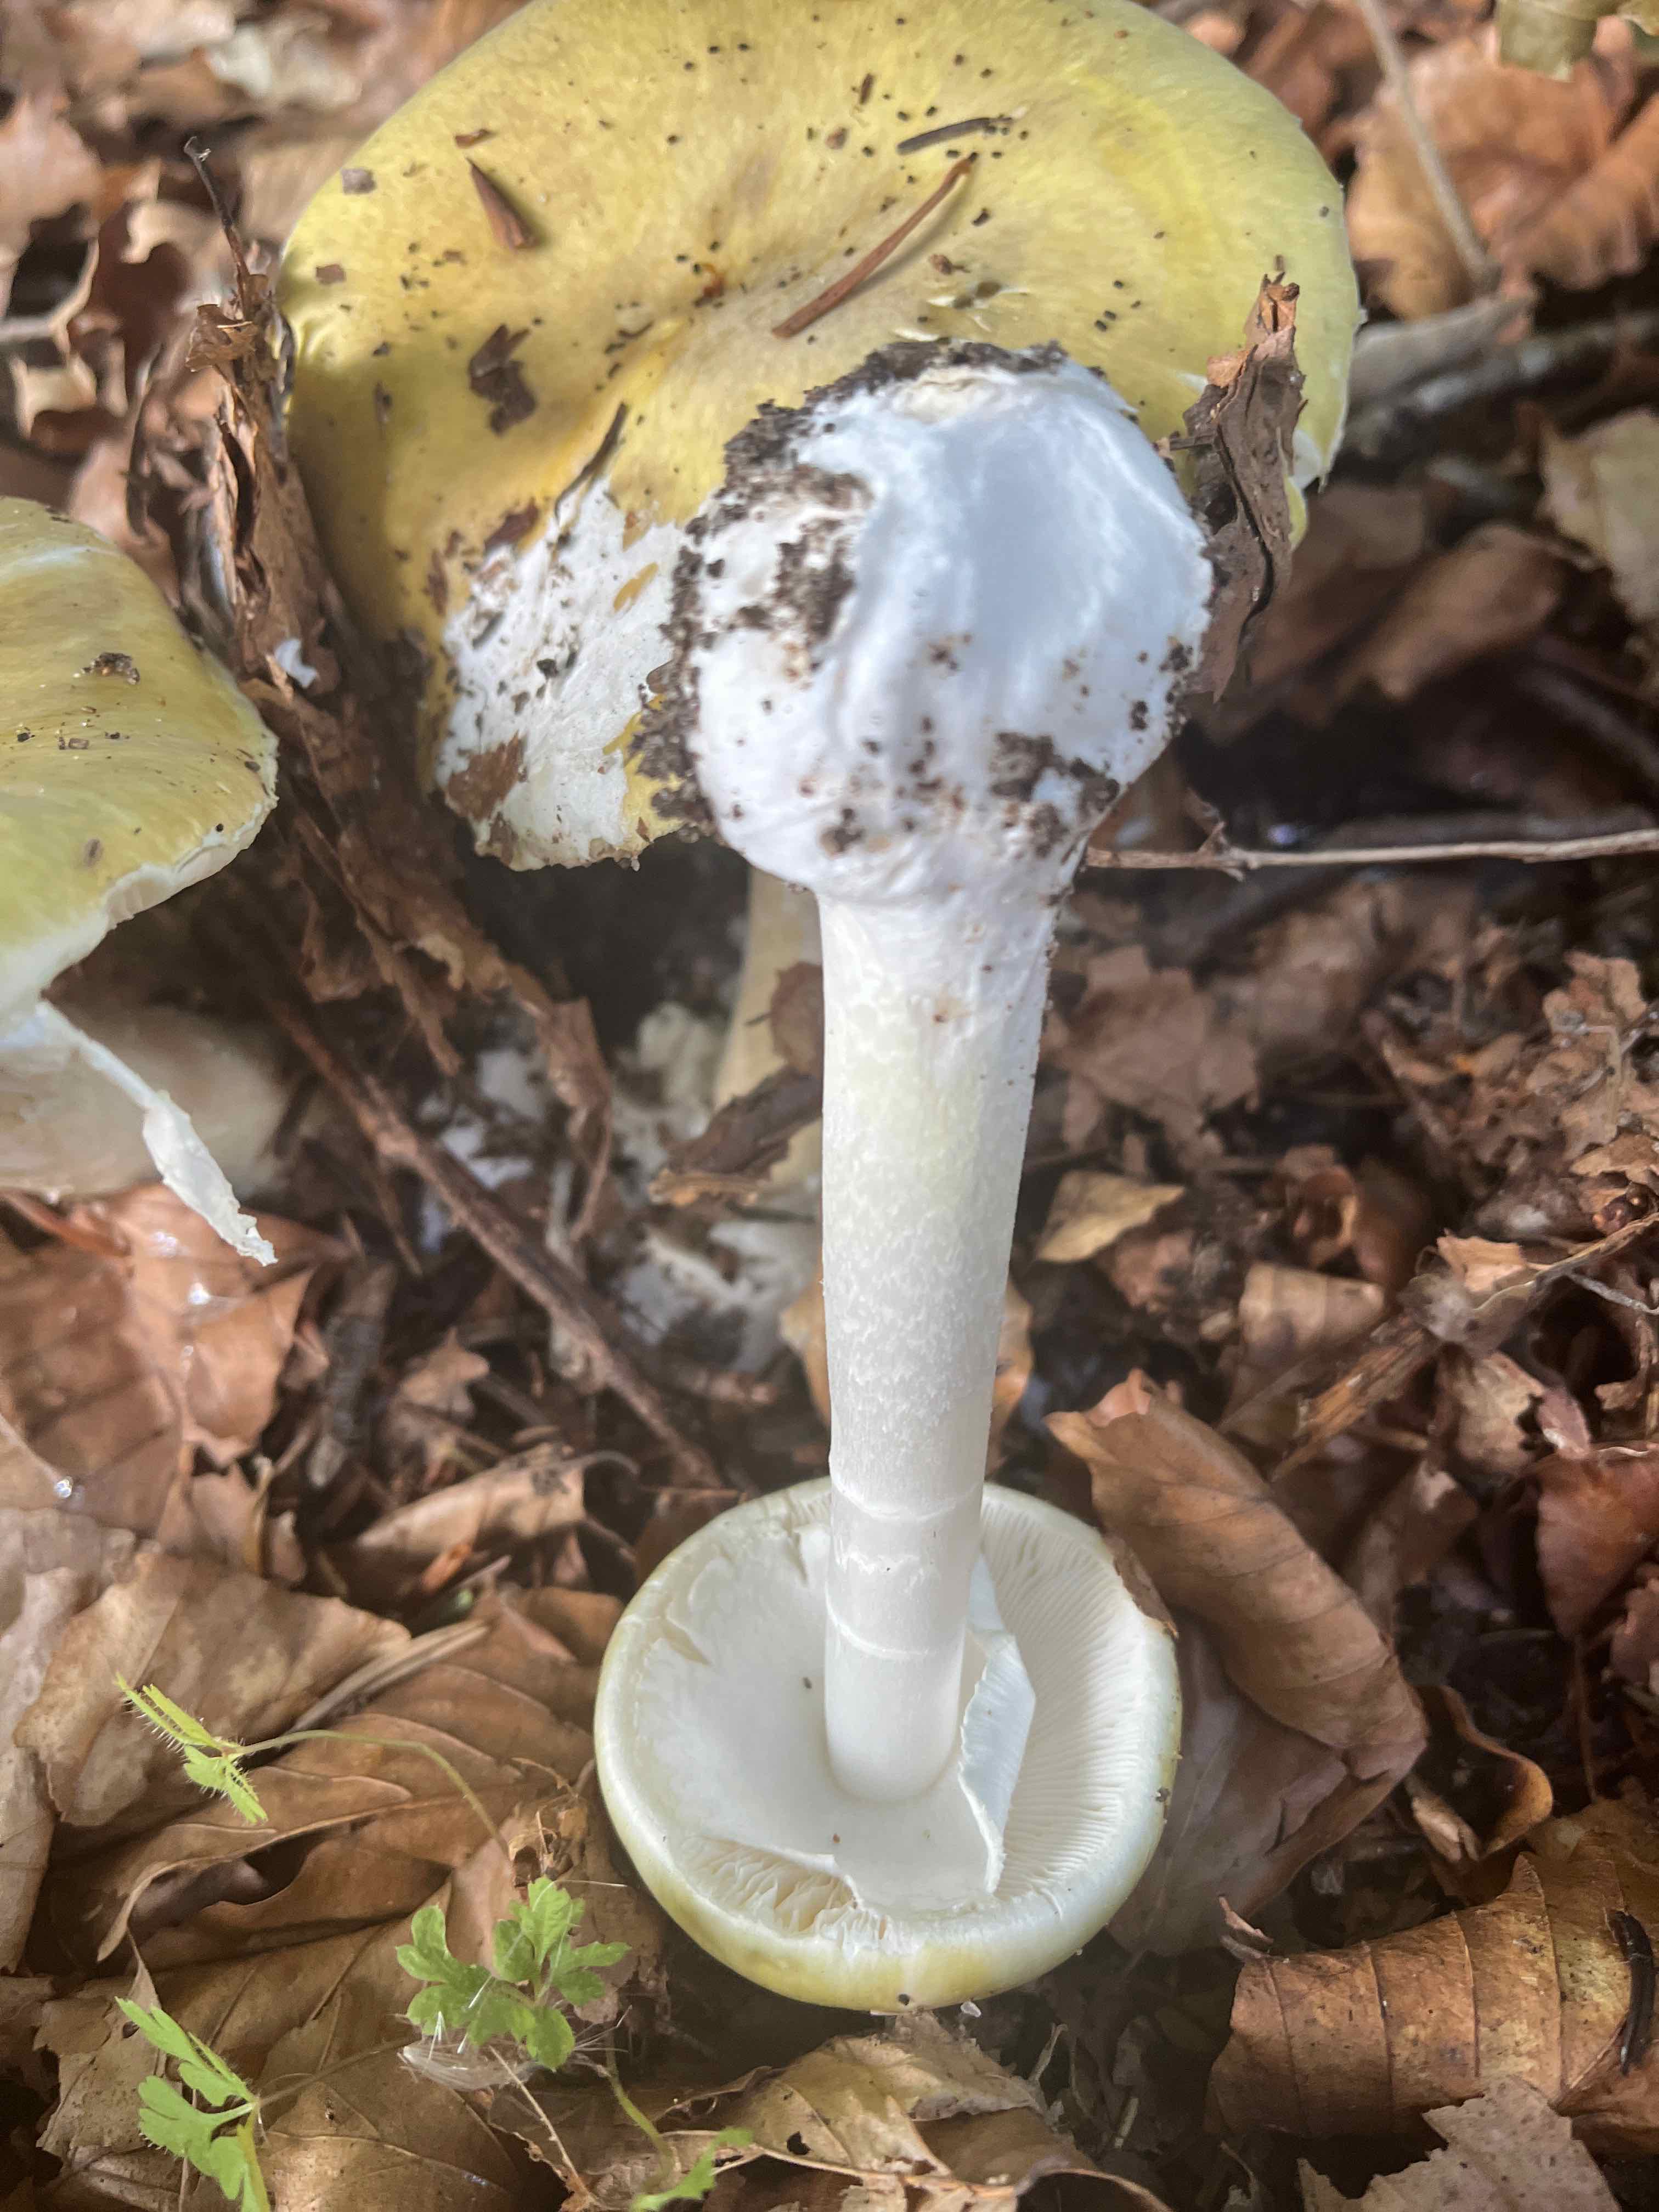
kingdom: Fungi
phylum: Basidiomycota
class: Agaricomycetes
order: Agaricales
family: Amanitaceae
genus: Amanita
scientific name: Amanita phalloides
